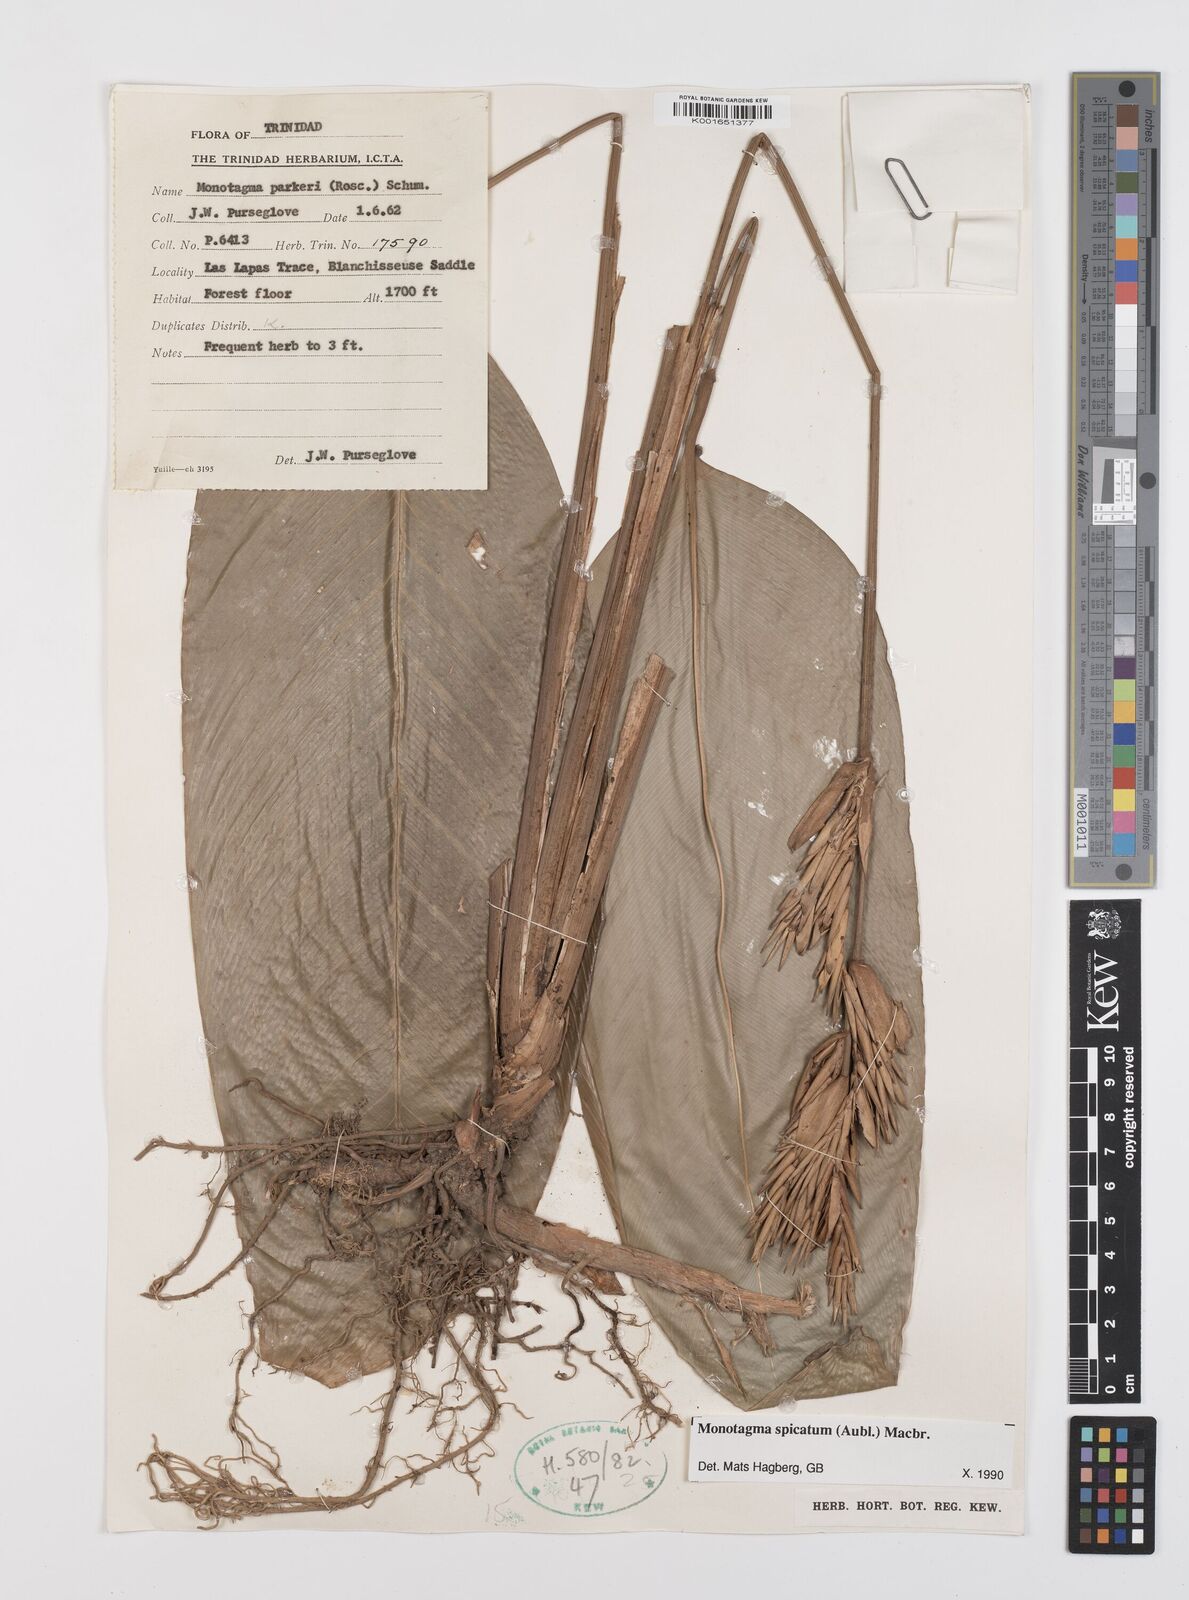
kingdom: Plantae
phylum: Tracheophyta
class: Liliopsida
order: Zingiberales
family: Marantaceae
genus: Monotagma
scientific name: Monotagma spicatum
